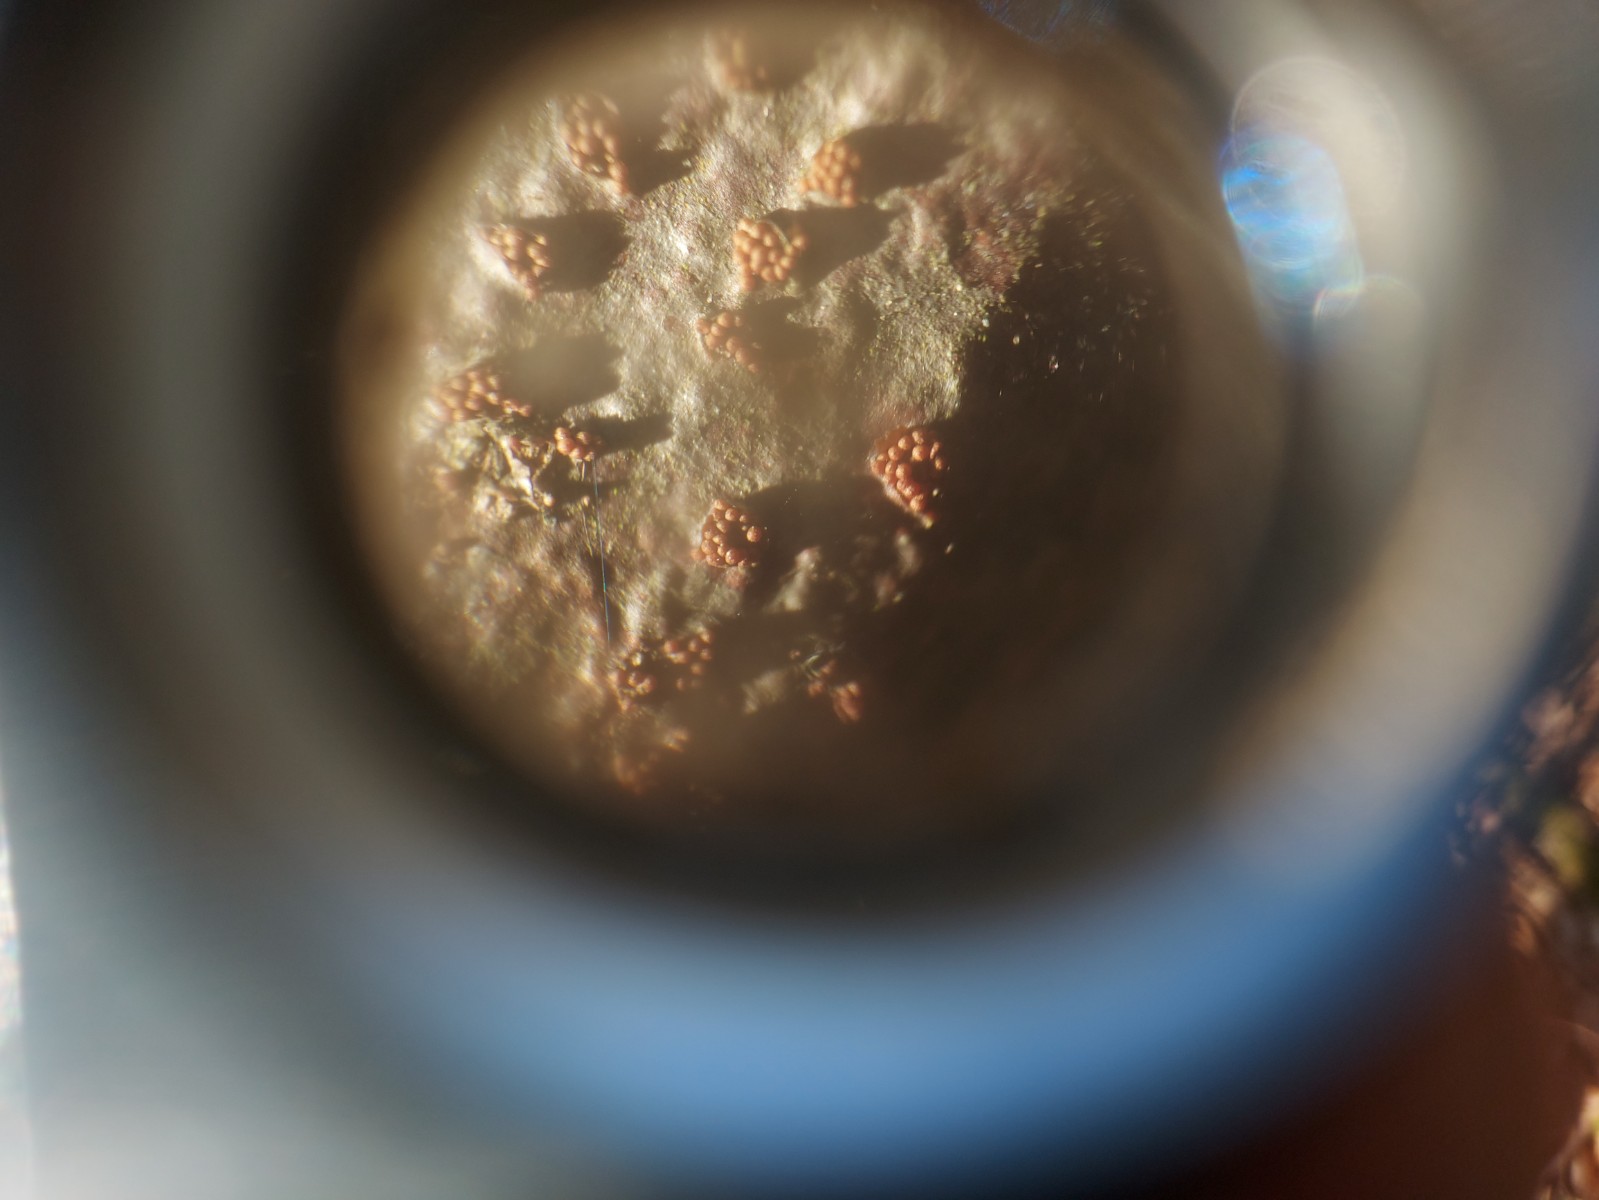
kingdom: Fungi
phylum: Ascomycota
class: Sordariomycetes
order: Hypocreales
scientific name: Hypocreales
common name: kødkerneordenen
